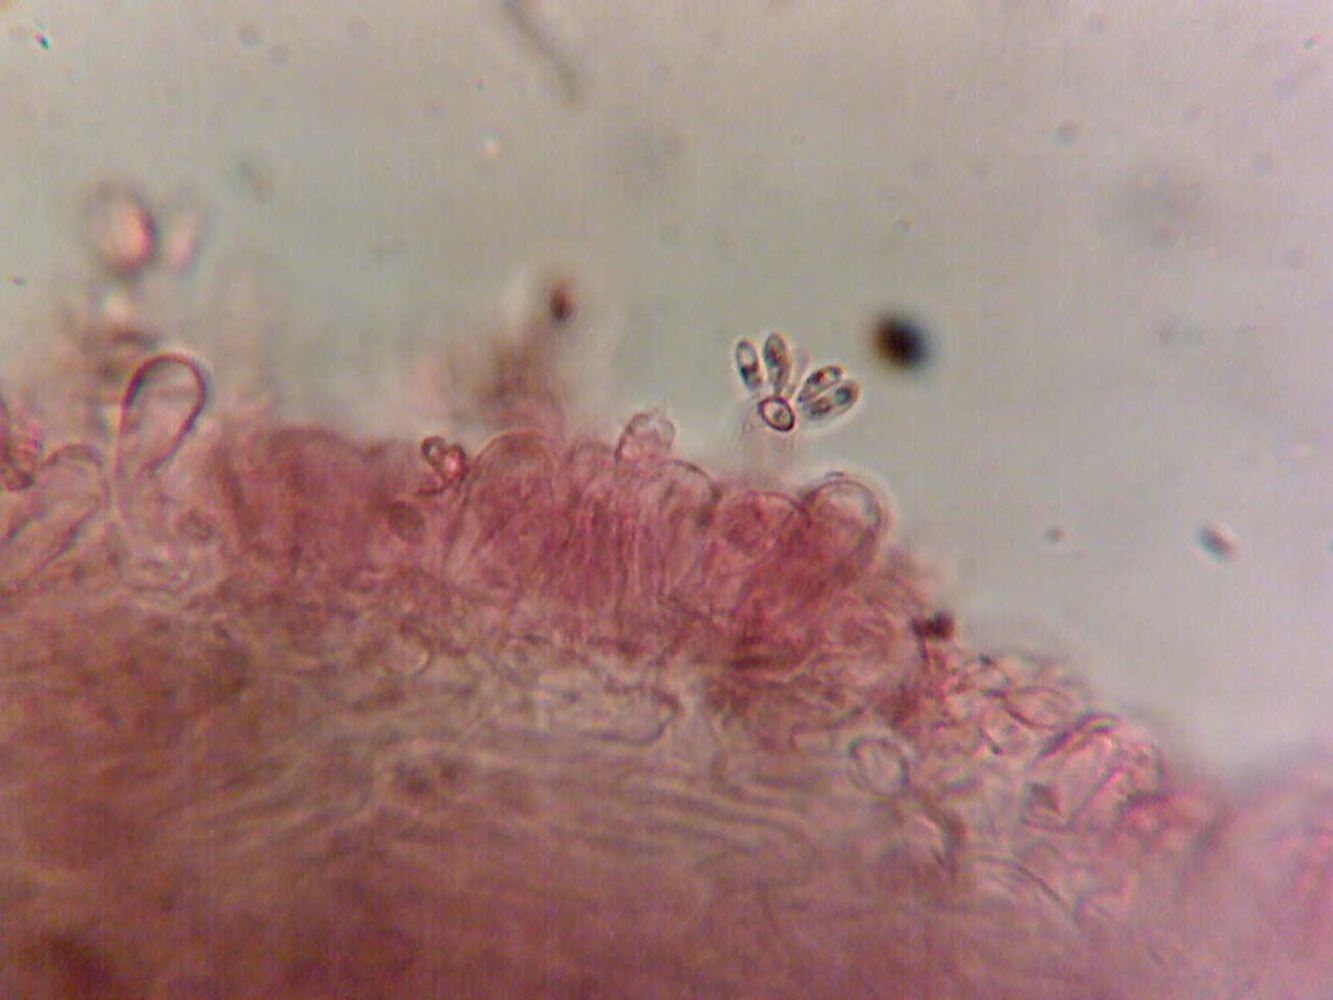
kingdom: Fungi
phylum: Basidiomycota
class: Agaricomycetes
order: Boletales
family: Rhizopogonaceae
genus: Rhizopogon
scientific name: Rhizopogon villosulus
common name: sortnende skægtrøffel
